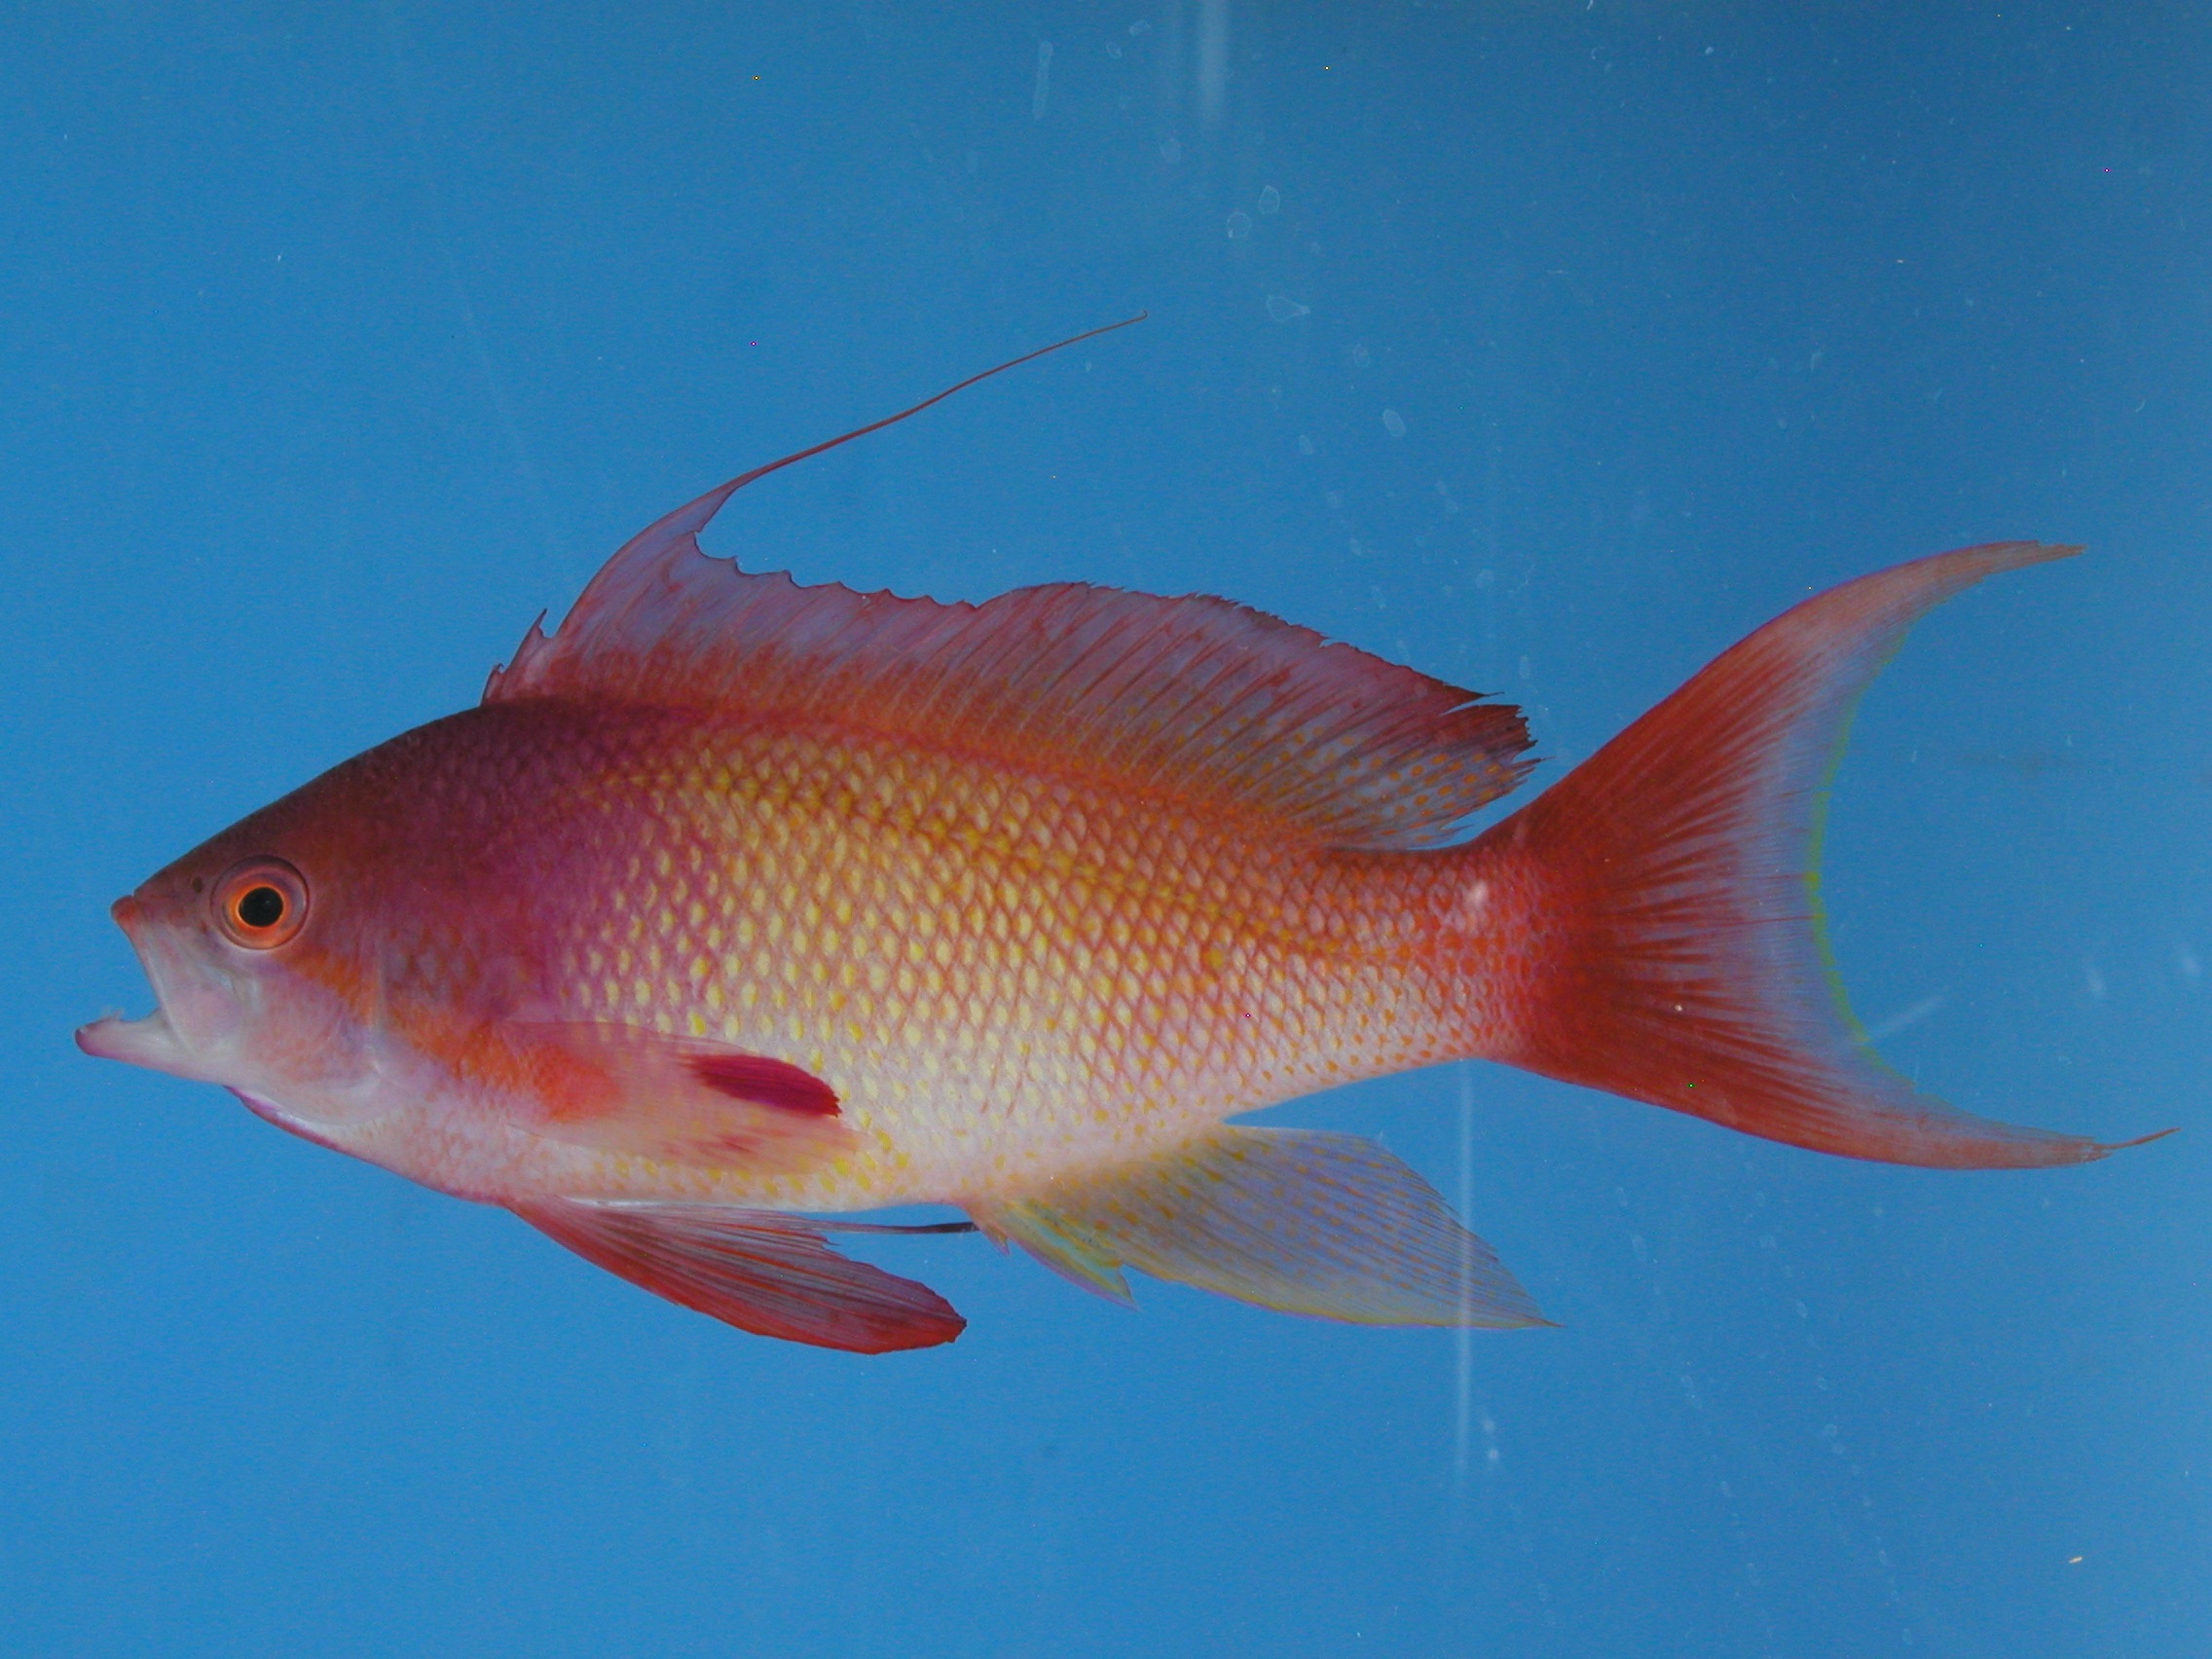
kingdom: Animalia
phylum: Chordata
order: Perciformes
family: Serranidae
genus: Pseudanthias
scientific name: Pseudanthias squamipinnis
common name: Scalefin anthias
